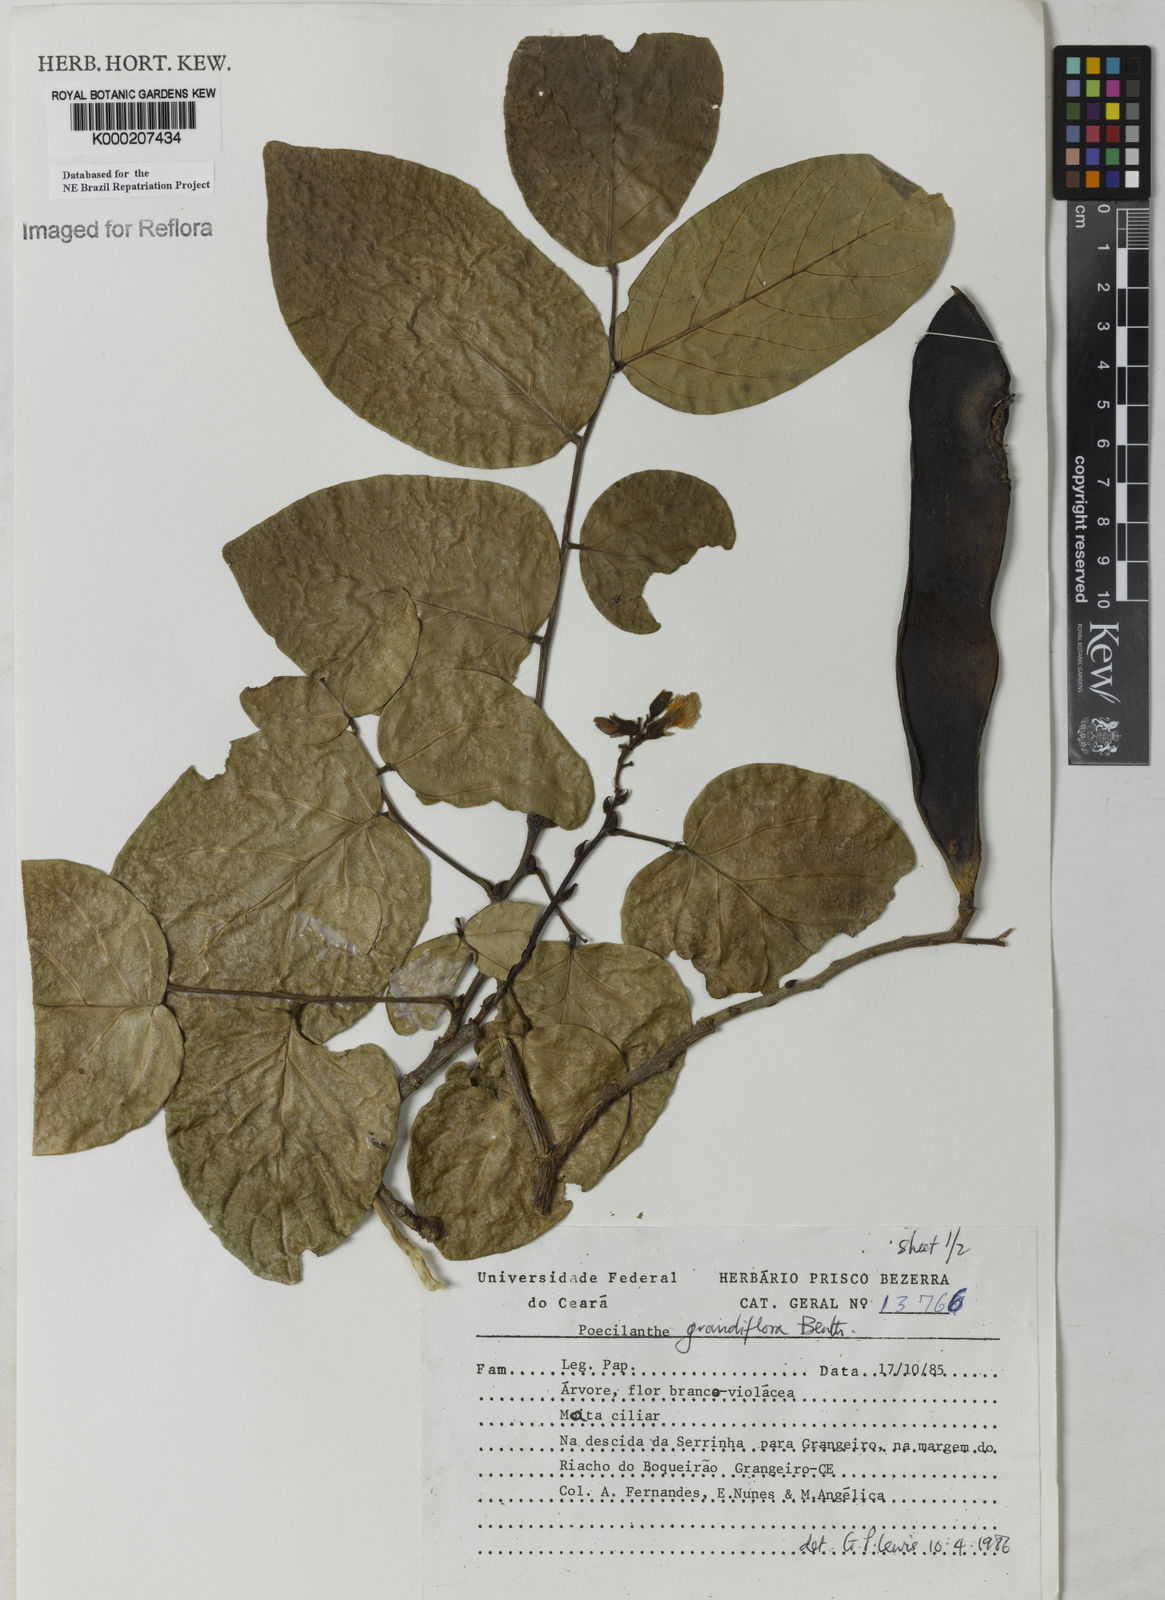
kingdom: Plantae
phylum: Tracheophyta
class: Magnoliopsida
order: Fabales
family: Fabaceae
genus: Poecilanthe
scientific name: Poecilanthe grandiflora
